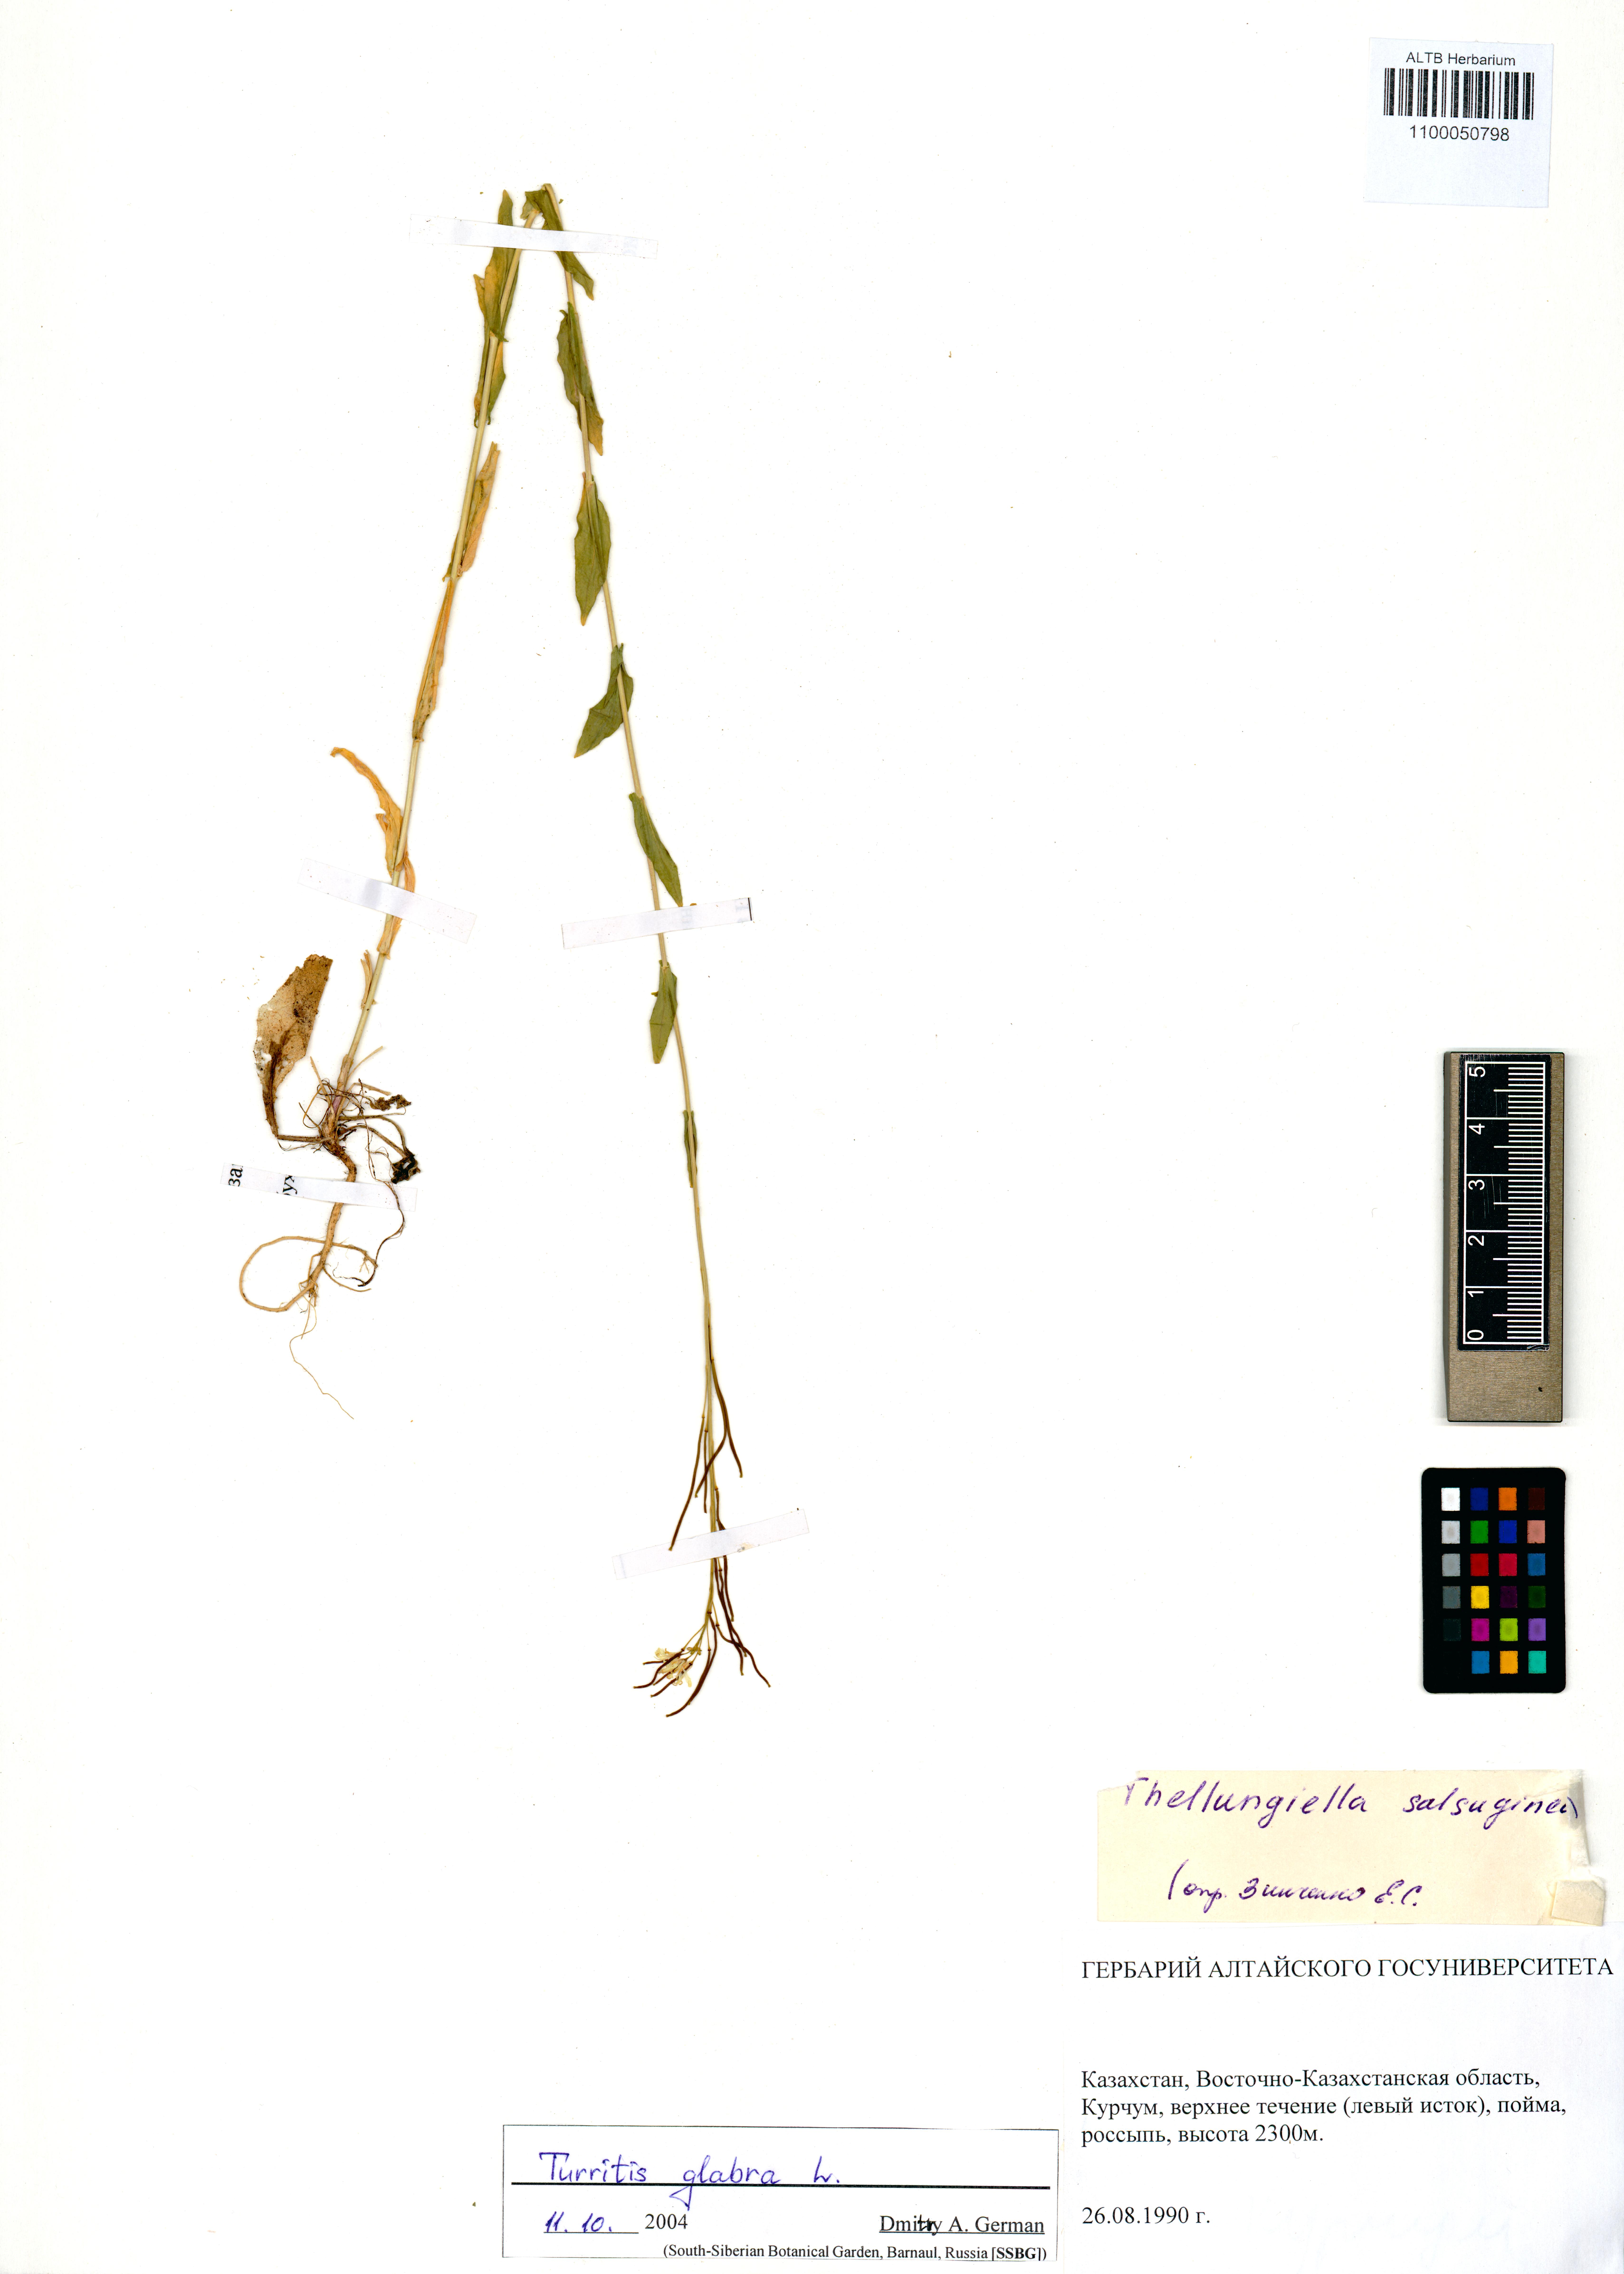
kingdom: Plantae
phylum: Tracheophyta
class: Magnoliopsida
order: Brassicales
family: Brassicaceae
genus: Turritis
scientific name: Turritis glabra
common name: Tower rockcress
